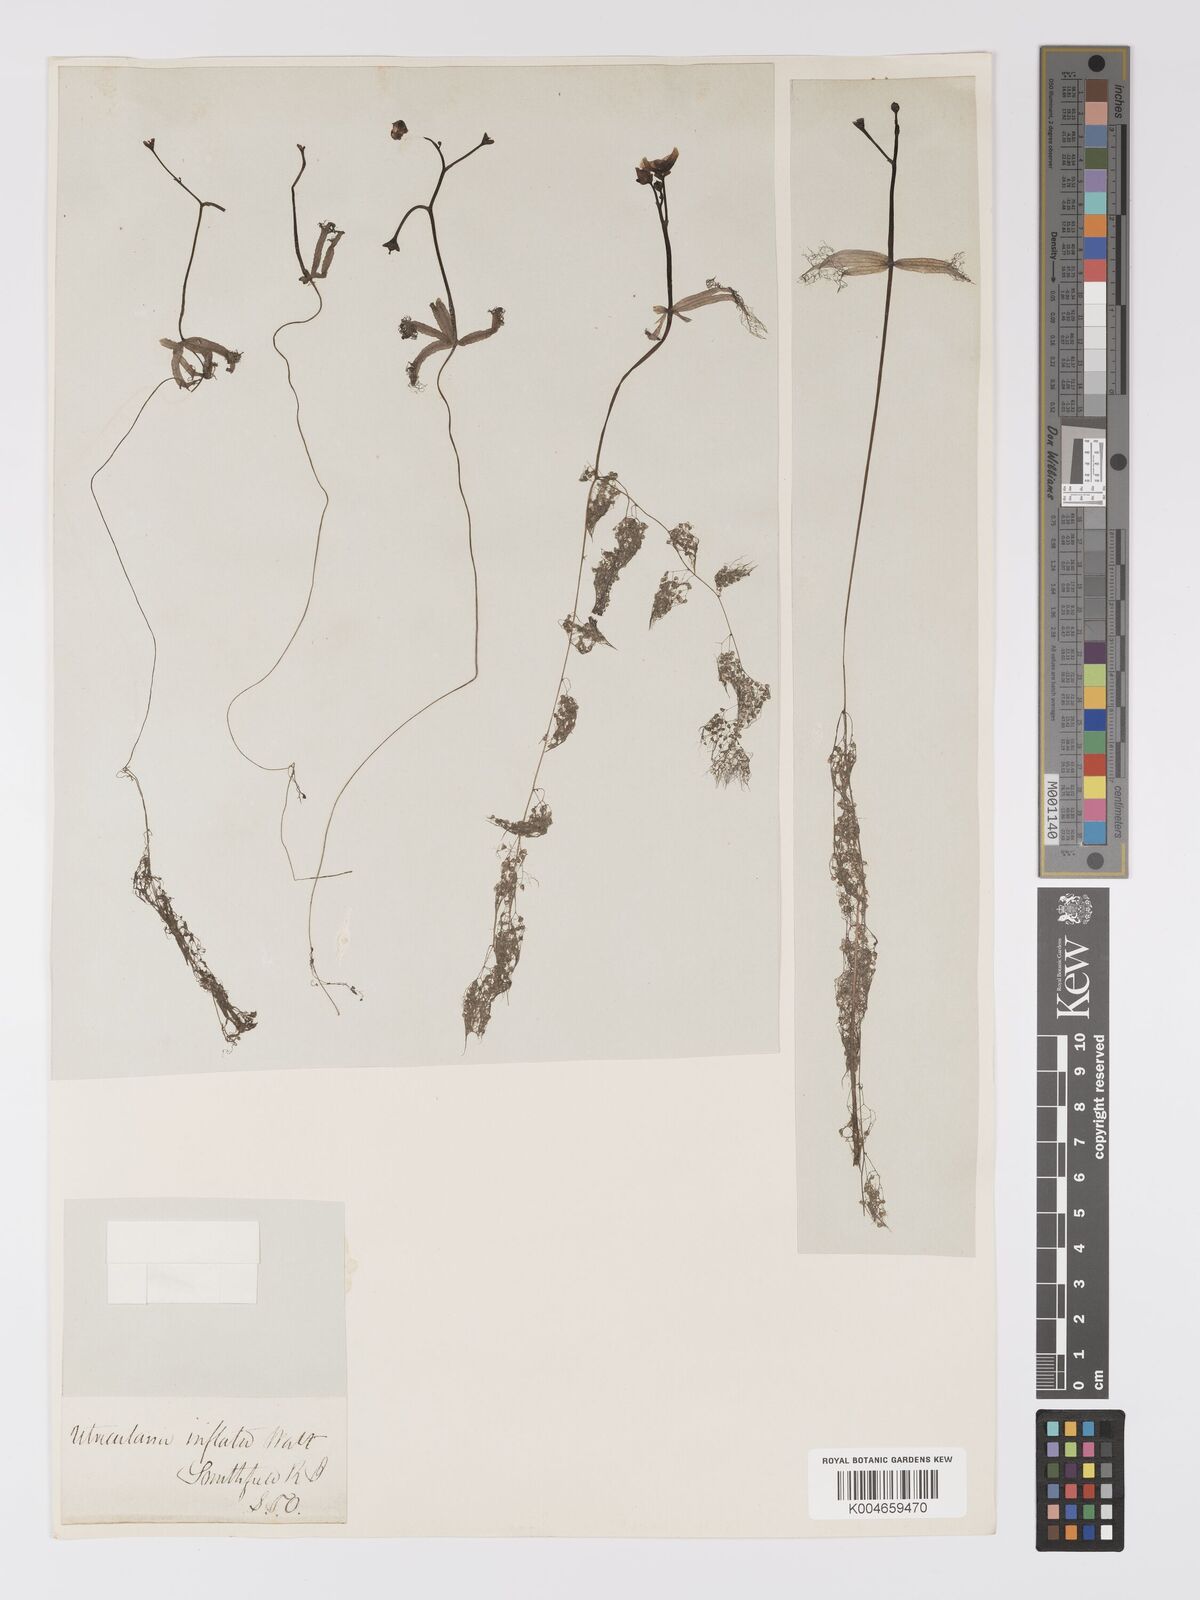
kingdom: Plantae
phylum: Tracheophyta
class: Magnoliopsida
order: Lamiales
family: Lentibulariaceae
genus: Utricularia
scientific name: Utricularia radiata
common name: Floating bladderwort
